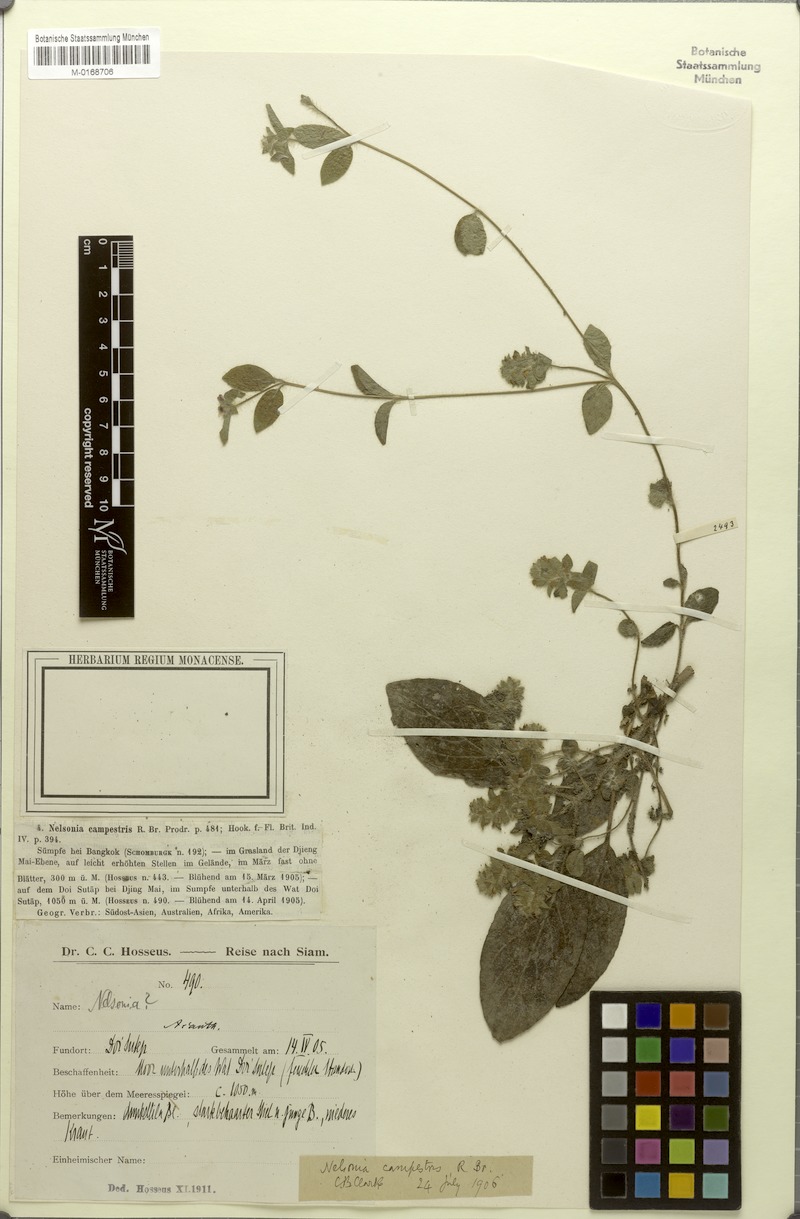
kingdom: Plantae
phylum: Tracheophyta
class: Magnoliopsida
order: Lamiales
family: Acanthaceae
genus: Nelsonia
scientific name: Nelsonia canescens
